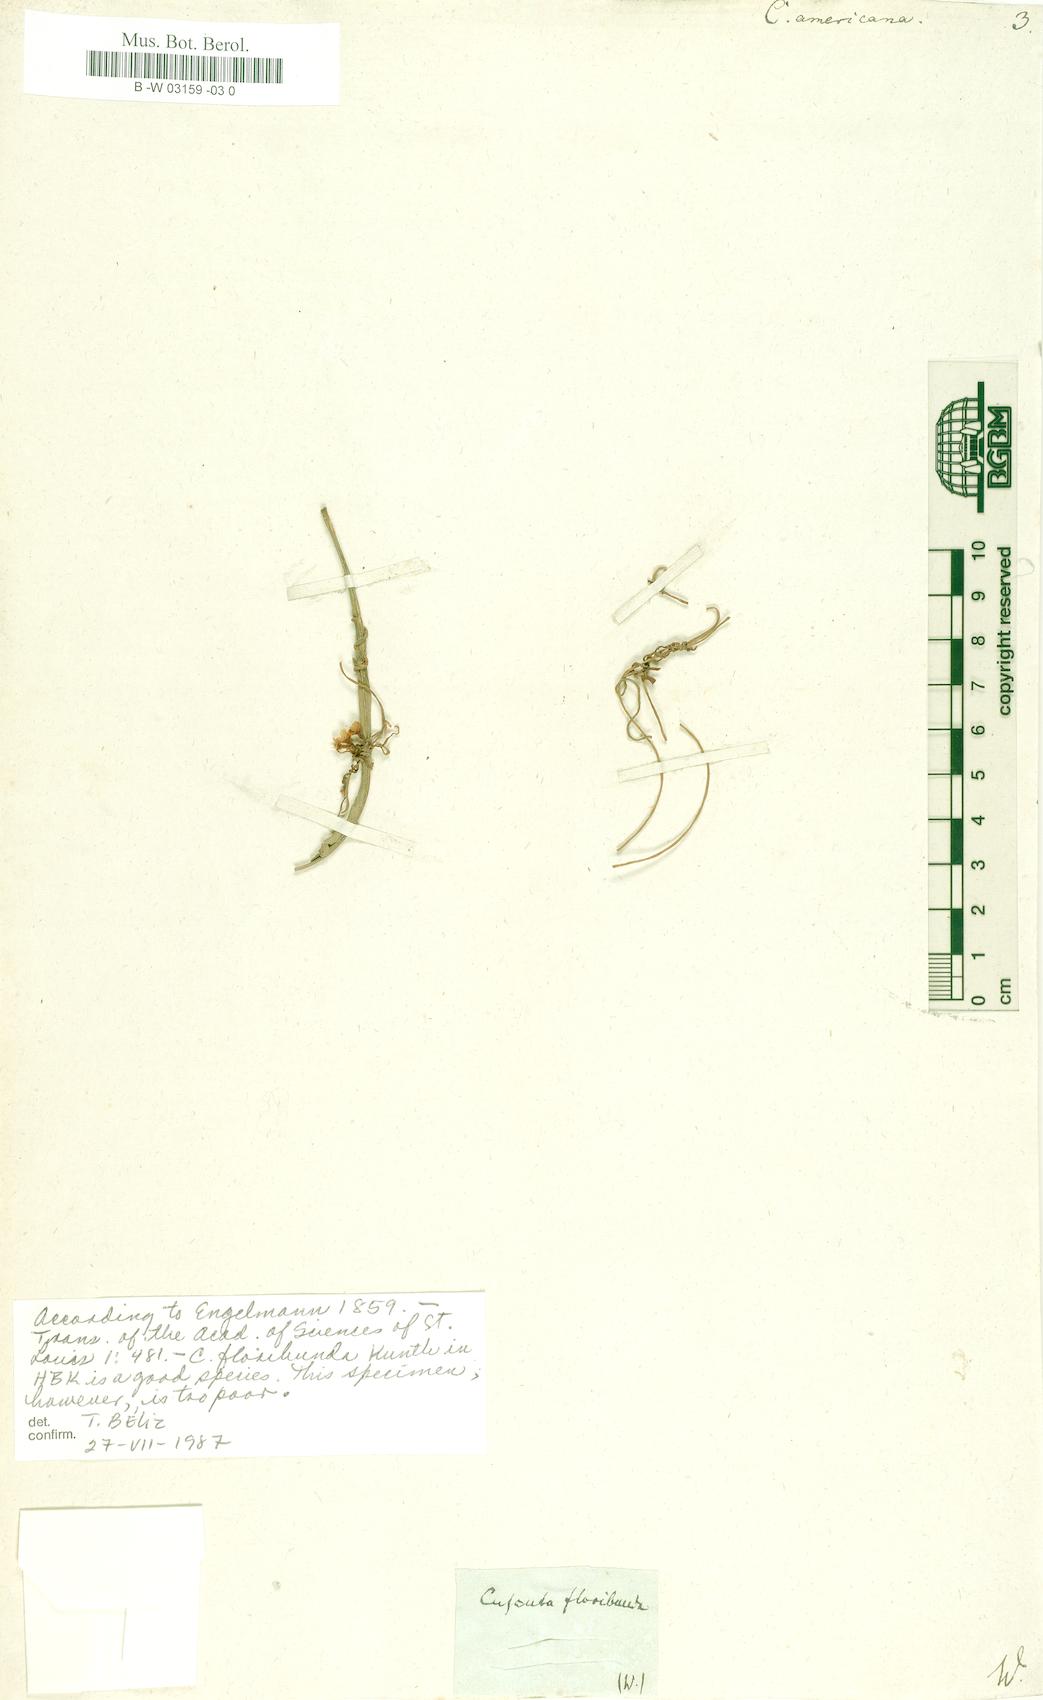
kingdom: Plantae
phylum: Tracheophyta
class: Magnoliopsida
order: Solanales
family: Convolvulaceae
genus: Cuscuta
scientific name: Cuscuta americana
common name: American dodder
